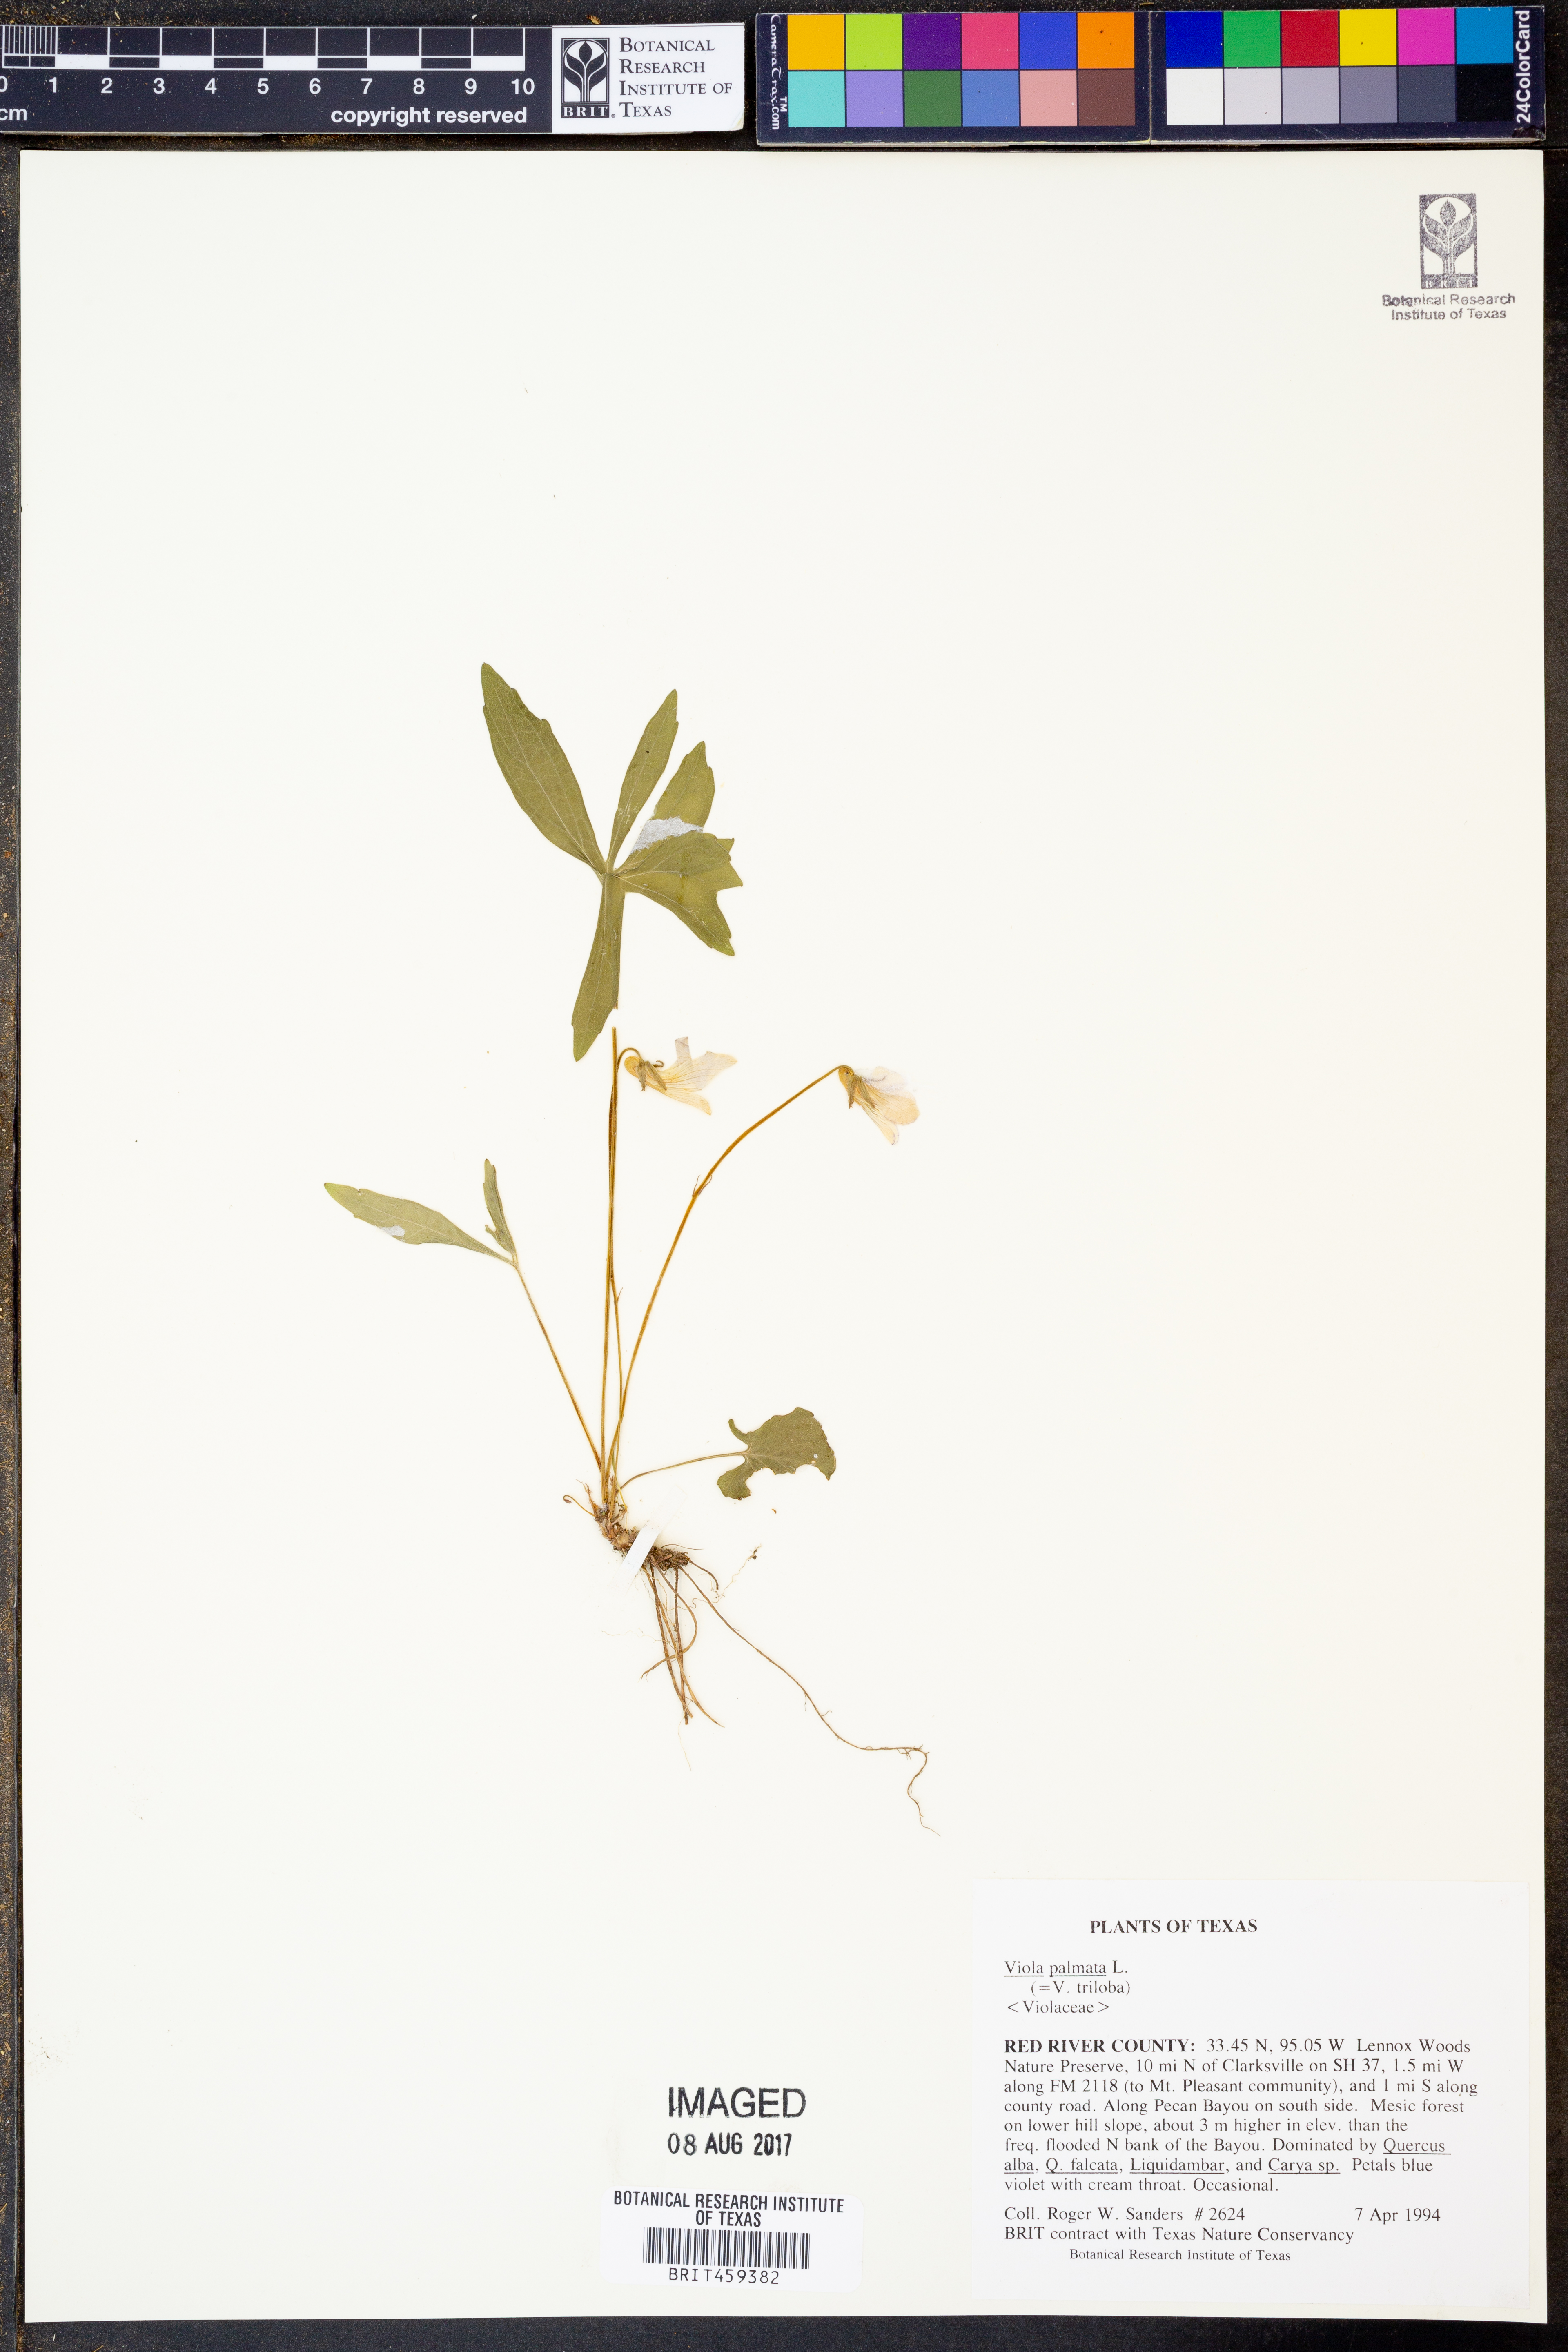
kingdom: Plantae
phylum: Tracheophyta
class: Magnoliopsida
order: Malpighiales
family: Violaceae
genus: Viola
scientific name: Viola palmata
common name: Early blue violet
